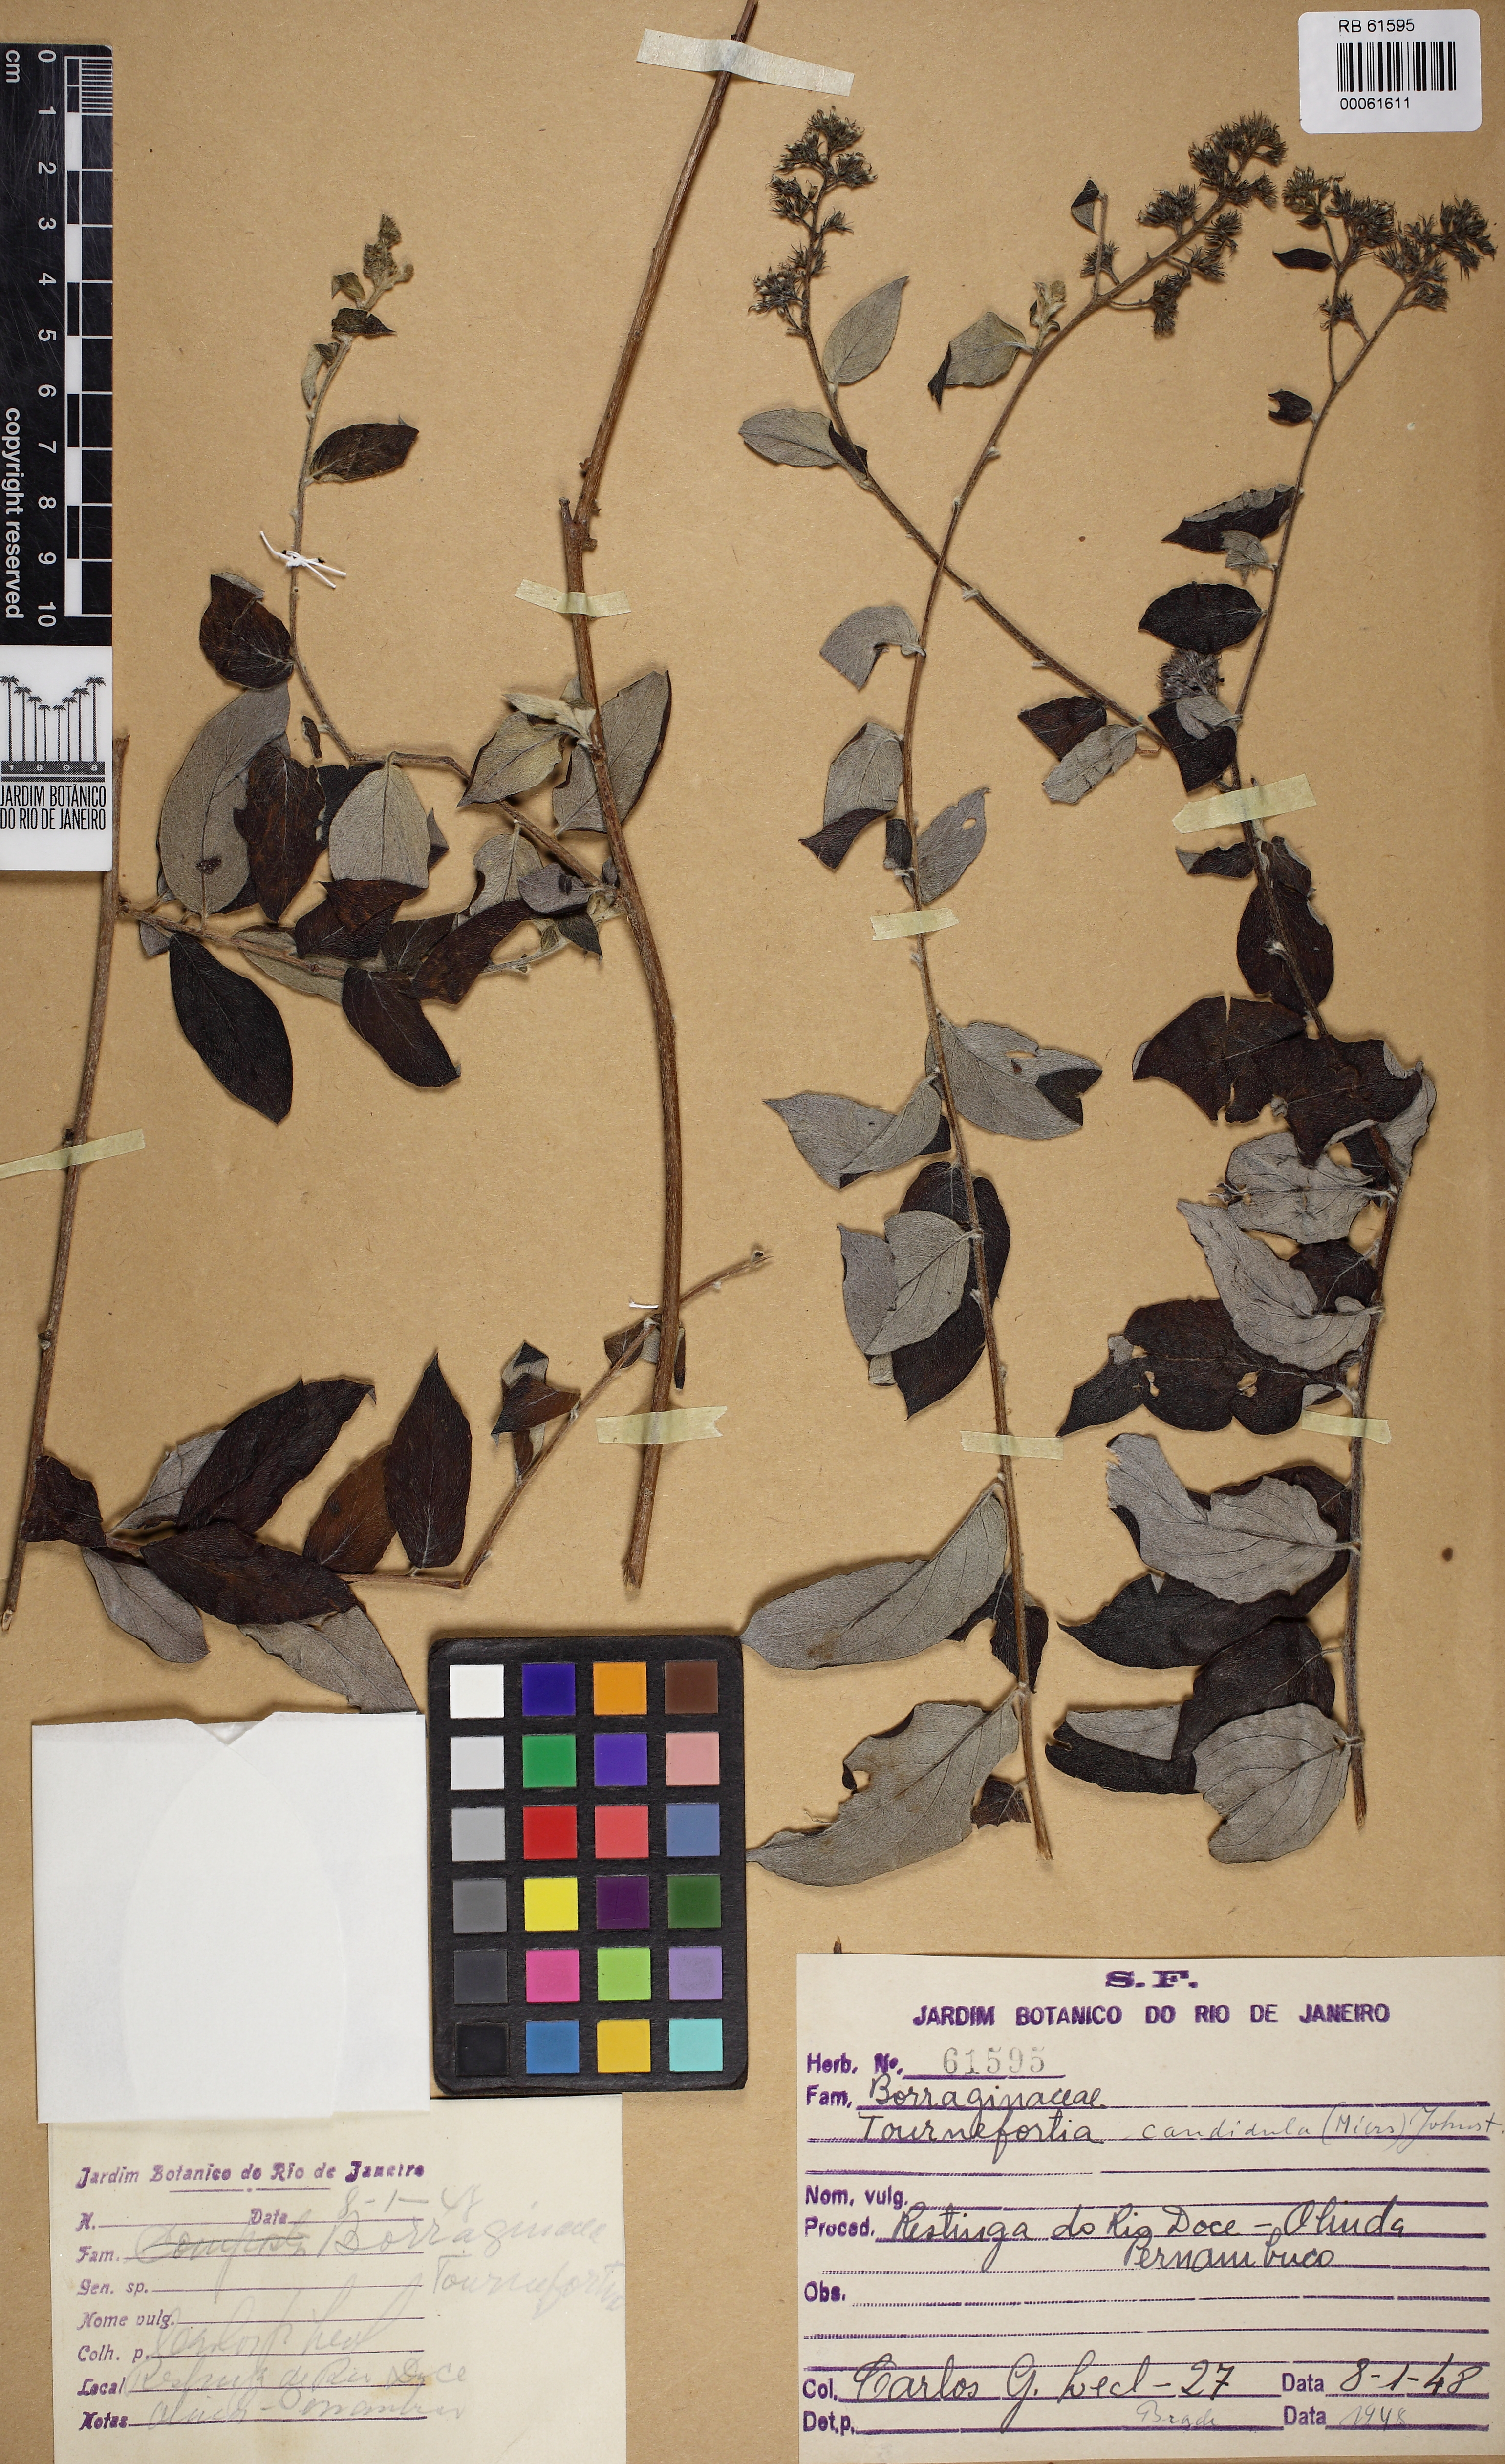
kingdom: Plantae
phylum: Tracheophyta
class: Magnoliopsida
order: Boraginales
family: Heliotropiaceae
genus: Myriopus
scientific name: Myriopus candidulus
